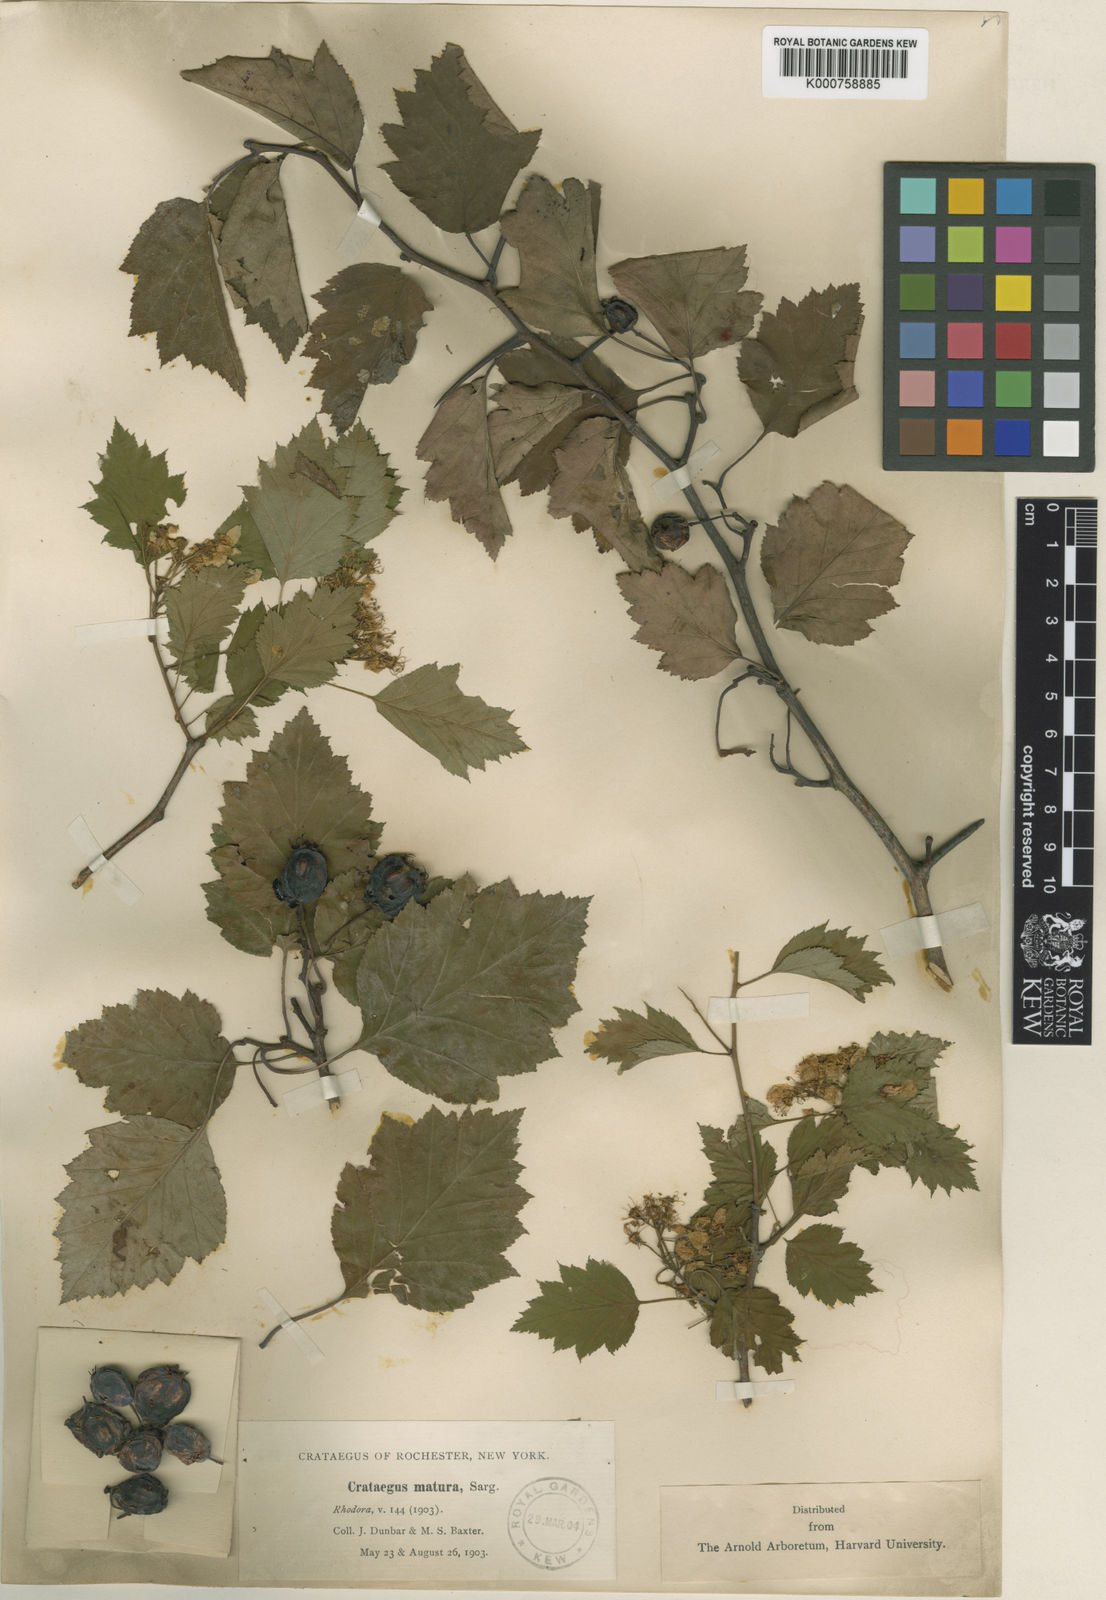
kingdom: Plantae
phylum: Tracheophyta
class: Magnoliopsida
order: Rosales
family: Rosaceae
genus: Crataegus
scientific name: Crataegus macrosperma
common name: Variable hawthorn
